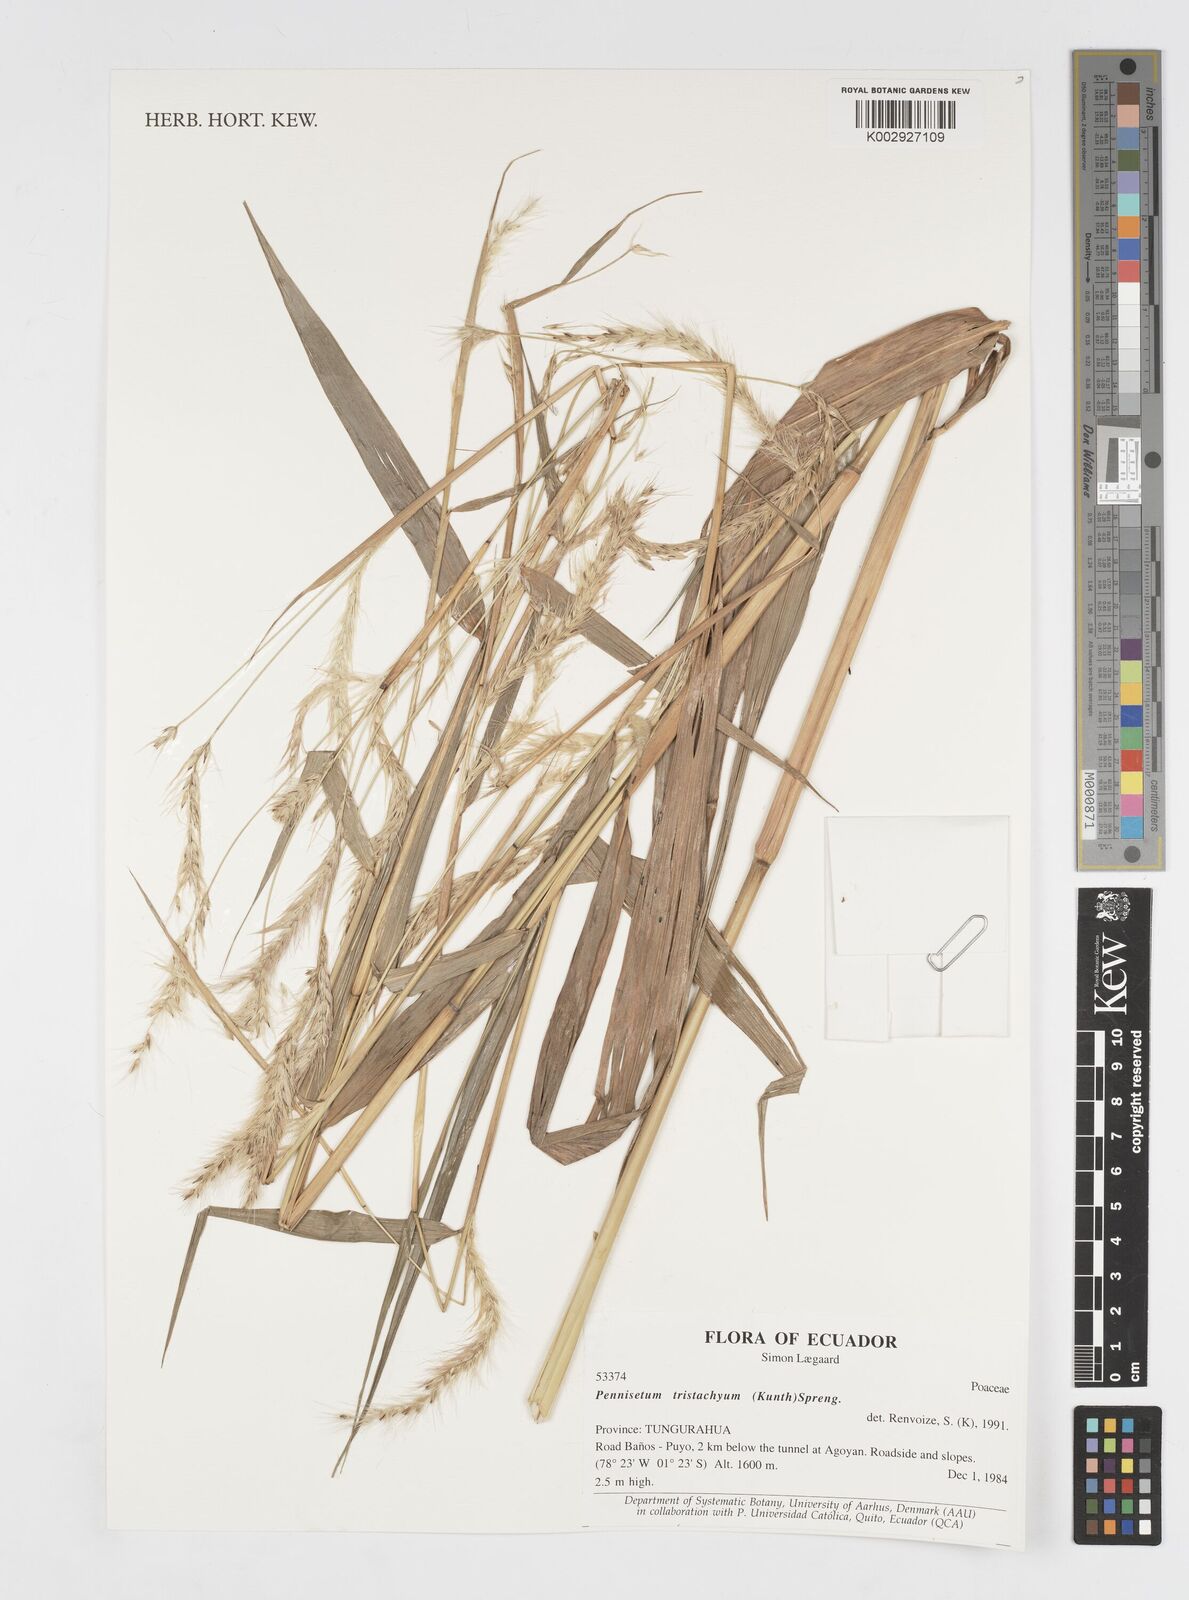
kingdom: Plantae
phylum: Tracheophyta
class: Liliopsida
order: Poales
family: Poaceae
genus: Cenchrus
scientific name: Cenchrus tristachyus
